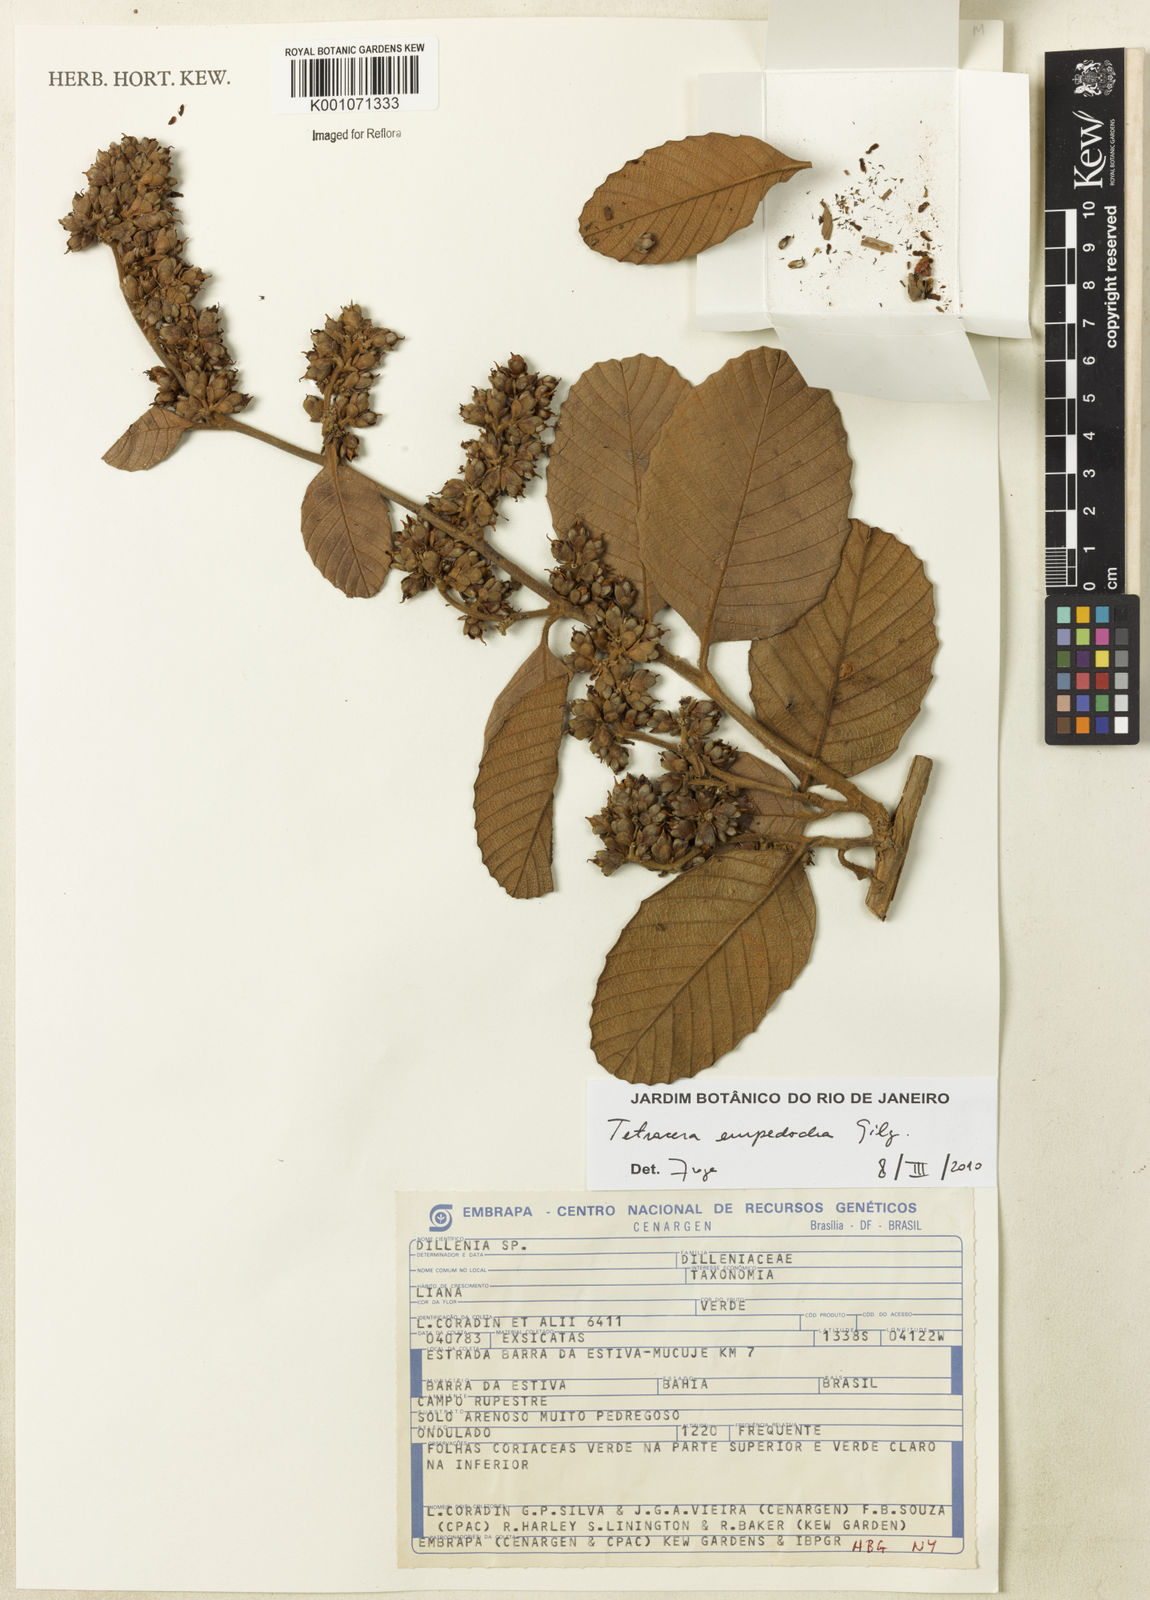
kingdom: Plantae
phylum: Tracheophyta
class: Magnoliopsida
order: Dilleniales
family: Dilleniaceae
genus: Tetracera
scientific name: Tetracera empedoclea
